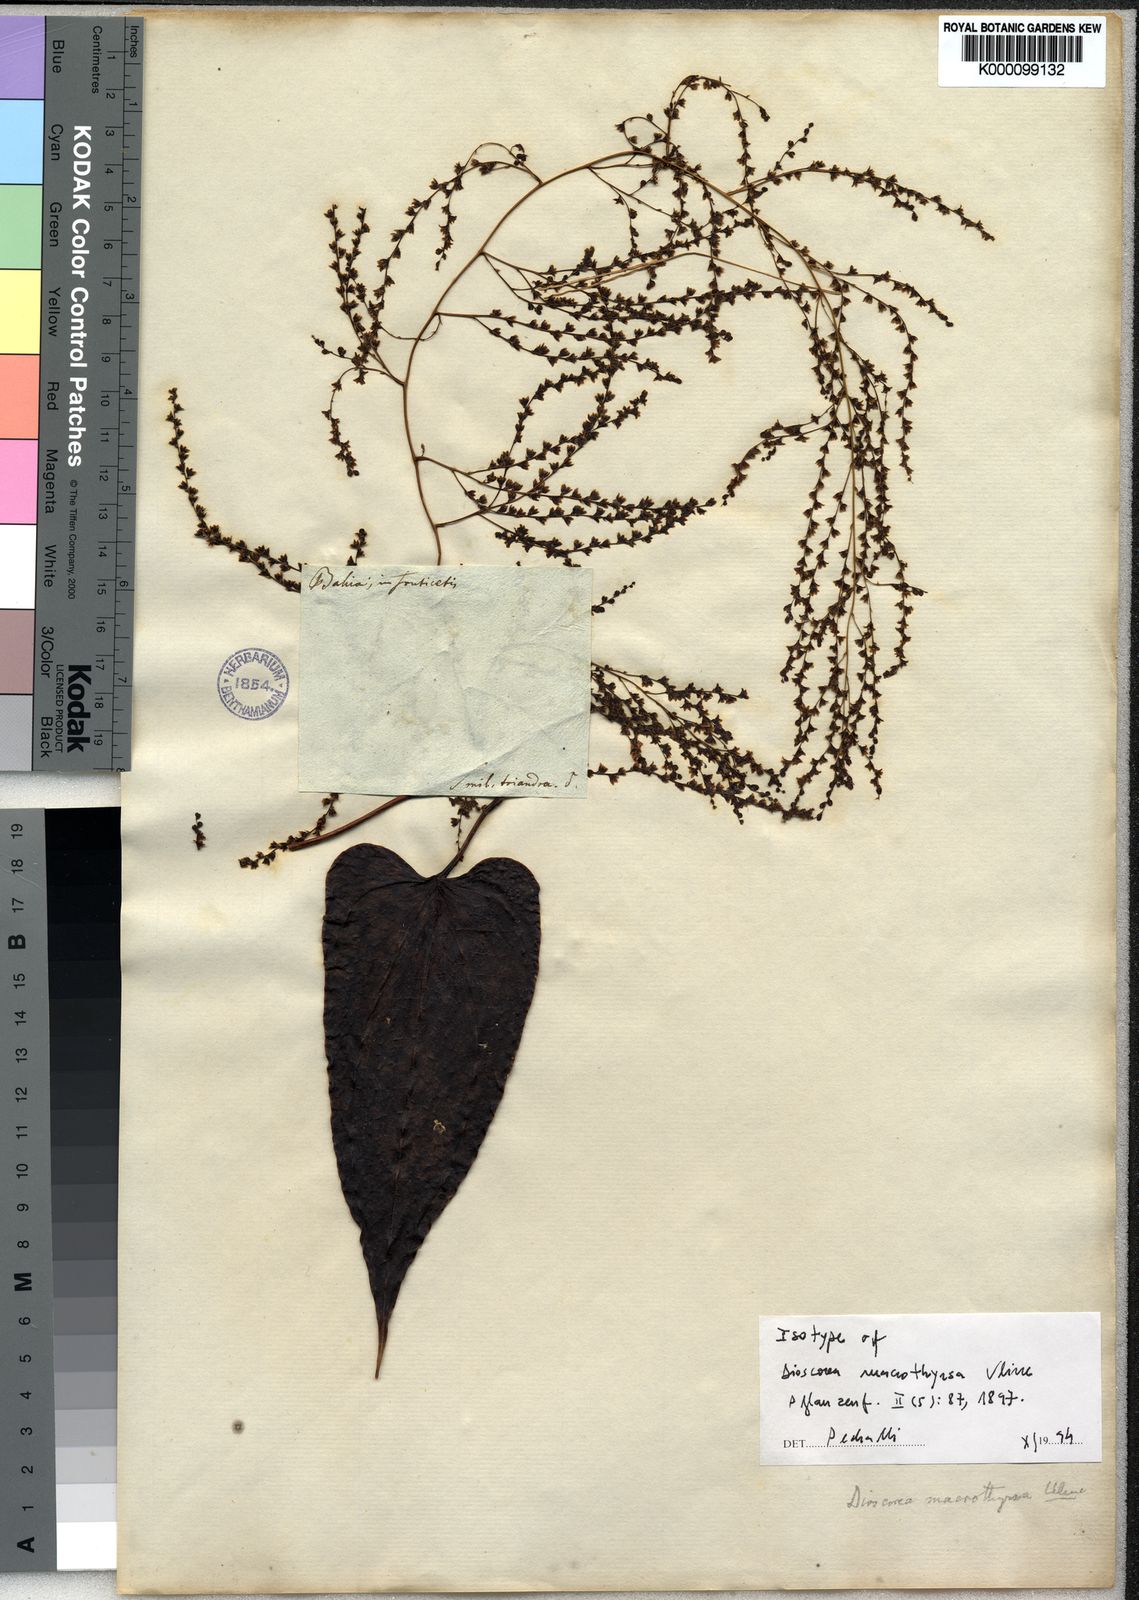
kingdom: Plantae
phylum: Tracheophyta
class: Liliopsida
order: Dioscoreales
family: Dioscoreaceae
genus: Dioscorea
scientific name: Dioscorea macrothyrsa
